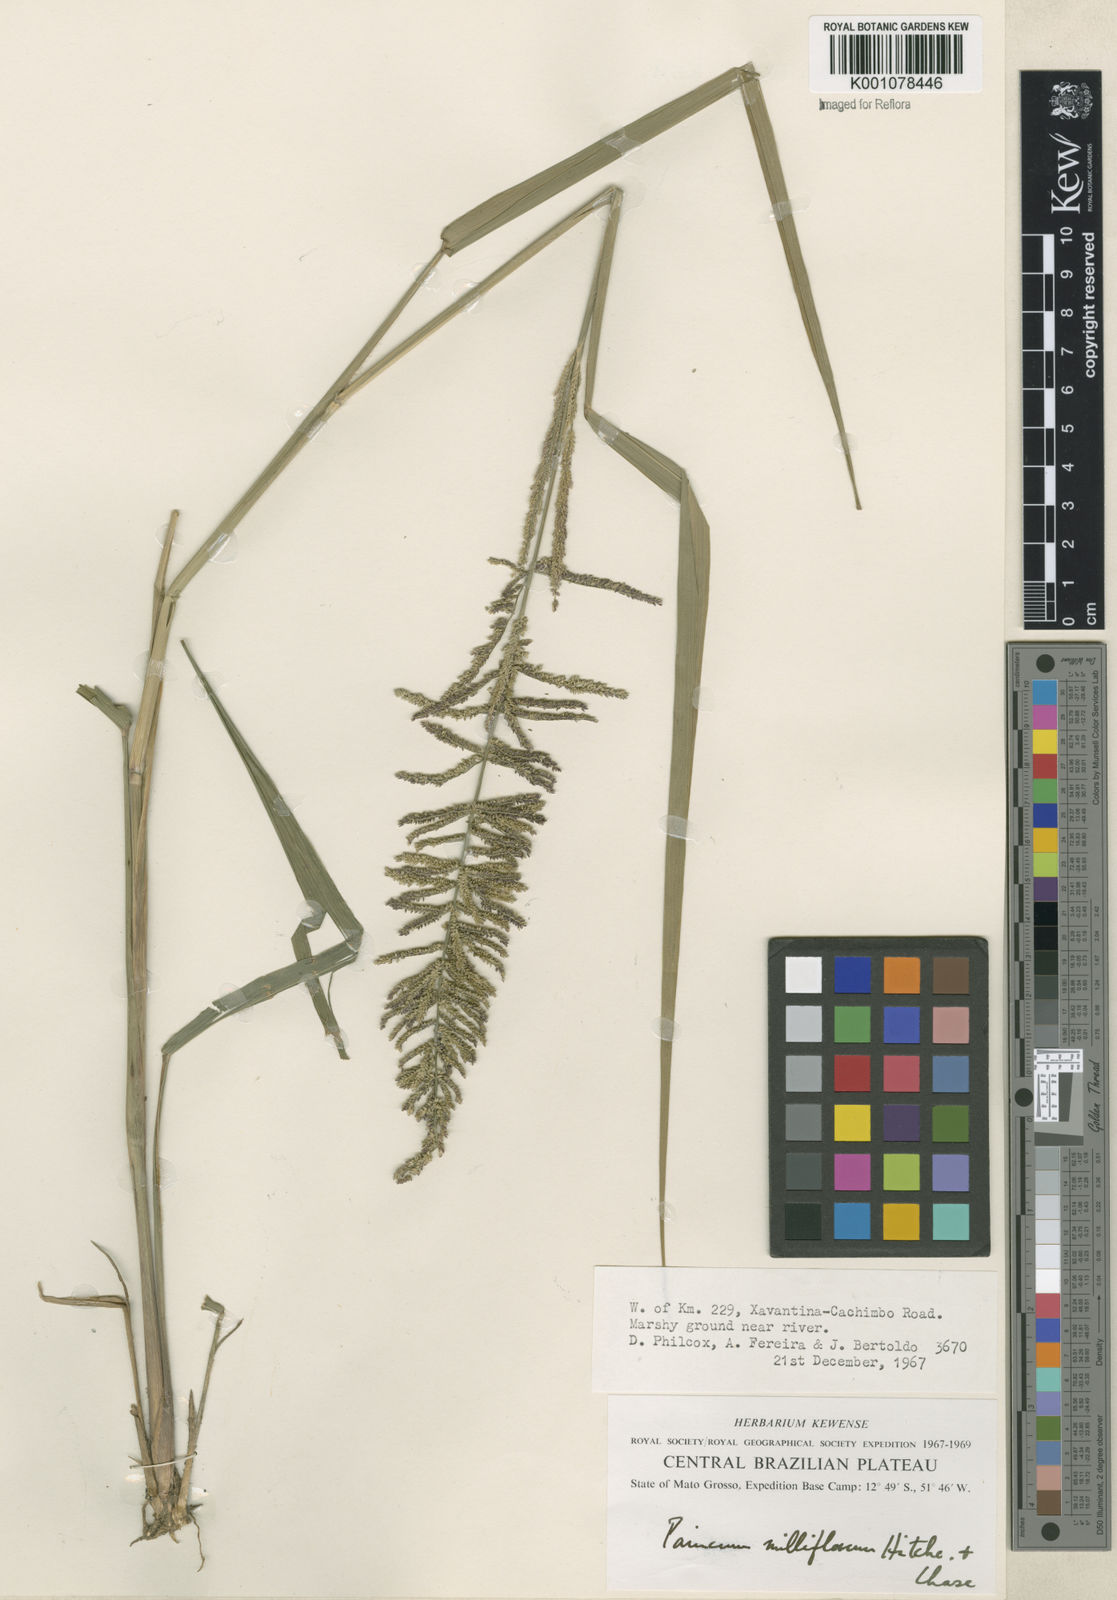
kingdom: Plantae
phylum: Tracheophyta
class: Liliopsida
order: Poales
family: Poaceae
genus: Rugoloa
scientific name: Rugoloa pilosa
